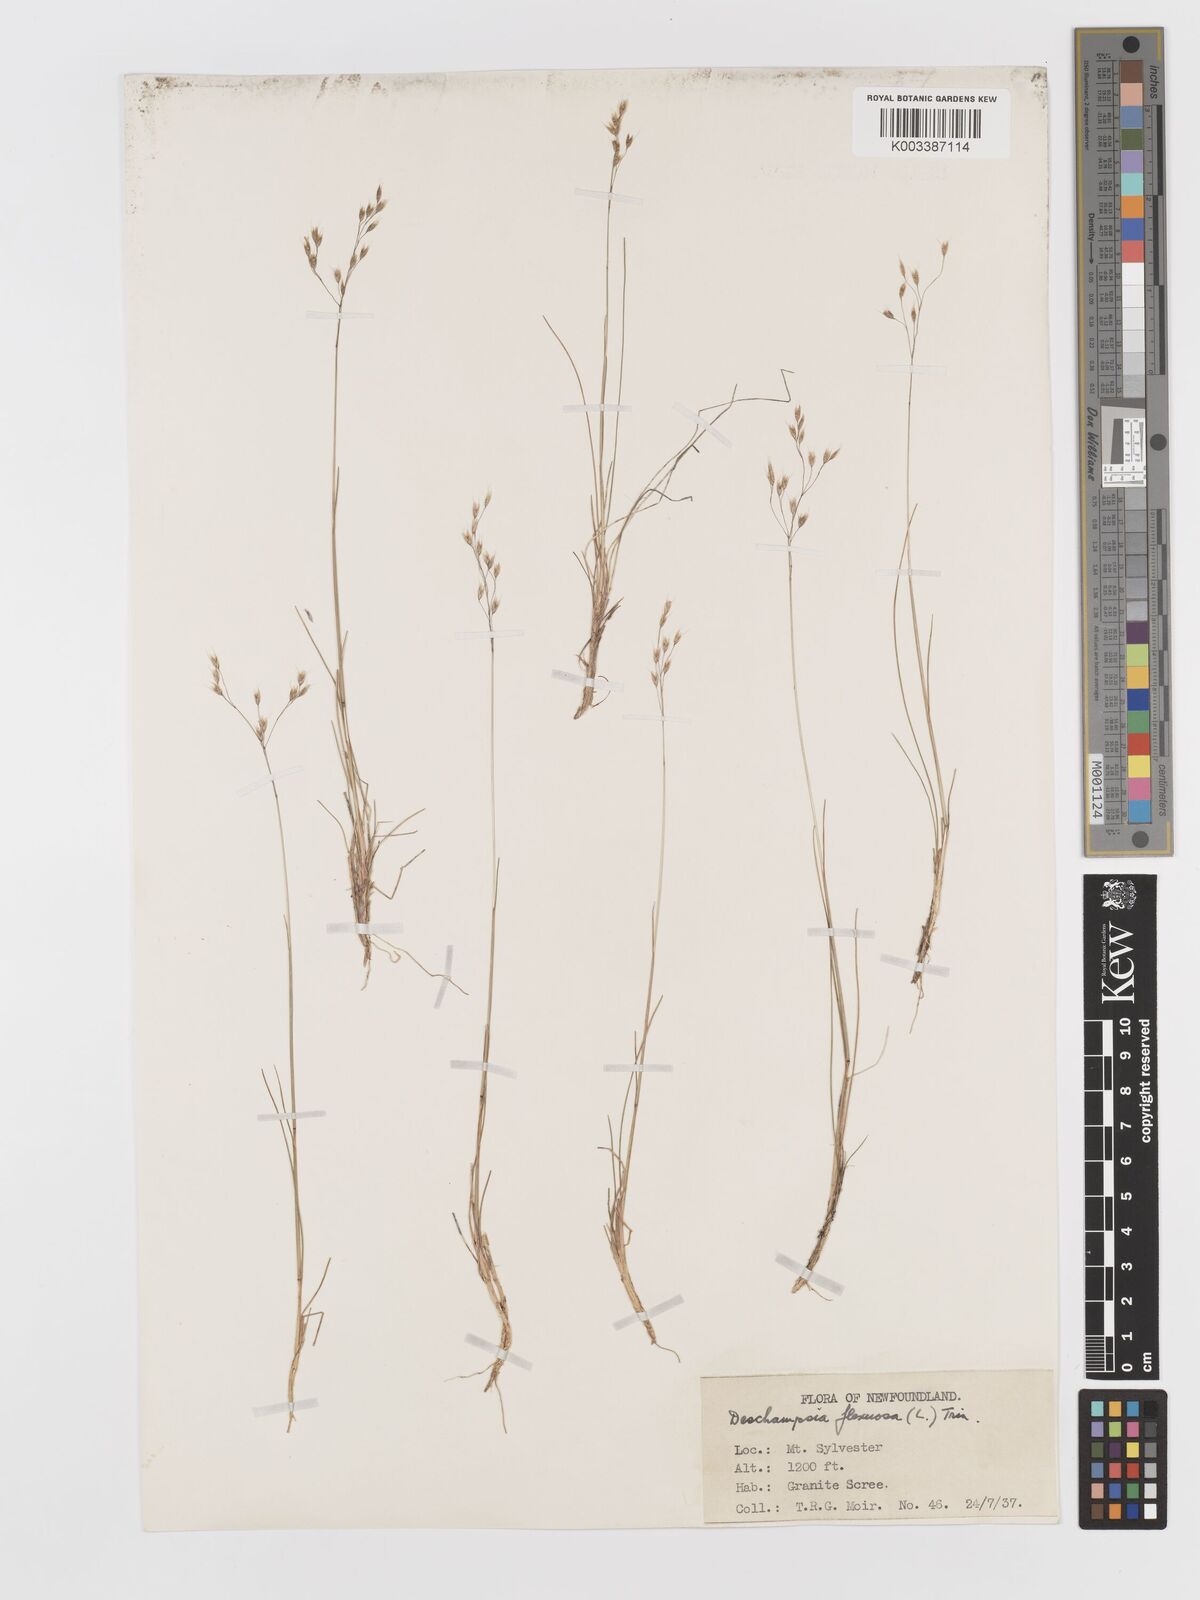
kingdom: Plantae
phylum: Tracheophyta
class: Liliopsida
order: Poales
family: Poaceae
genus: Avenella
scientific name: Avenella flexuosa
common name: Wavy hairgrass
